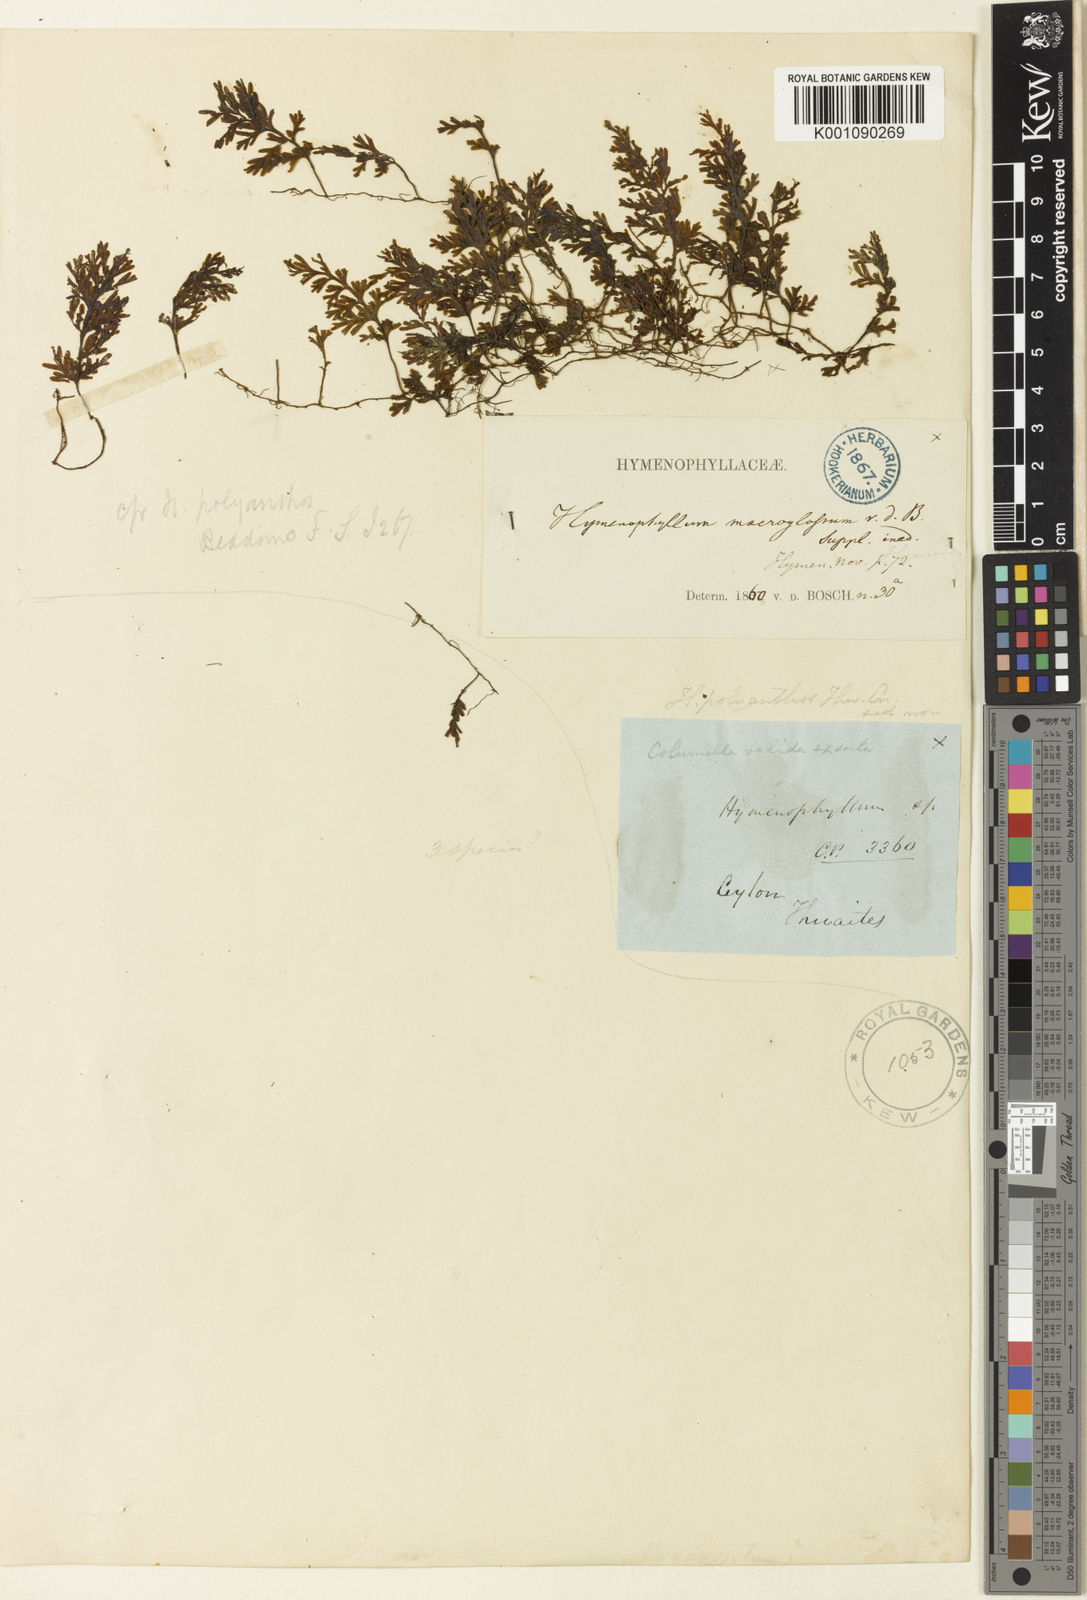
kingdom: Plantae
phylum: Tracheophyta
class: Polypodiopsida
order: Hymenophyllales
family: Hymenophyllaceae
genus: Hymenophyllum
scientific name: Hymenophyllum macroglossum
